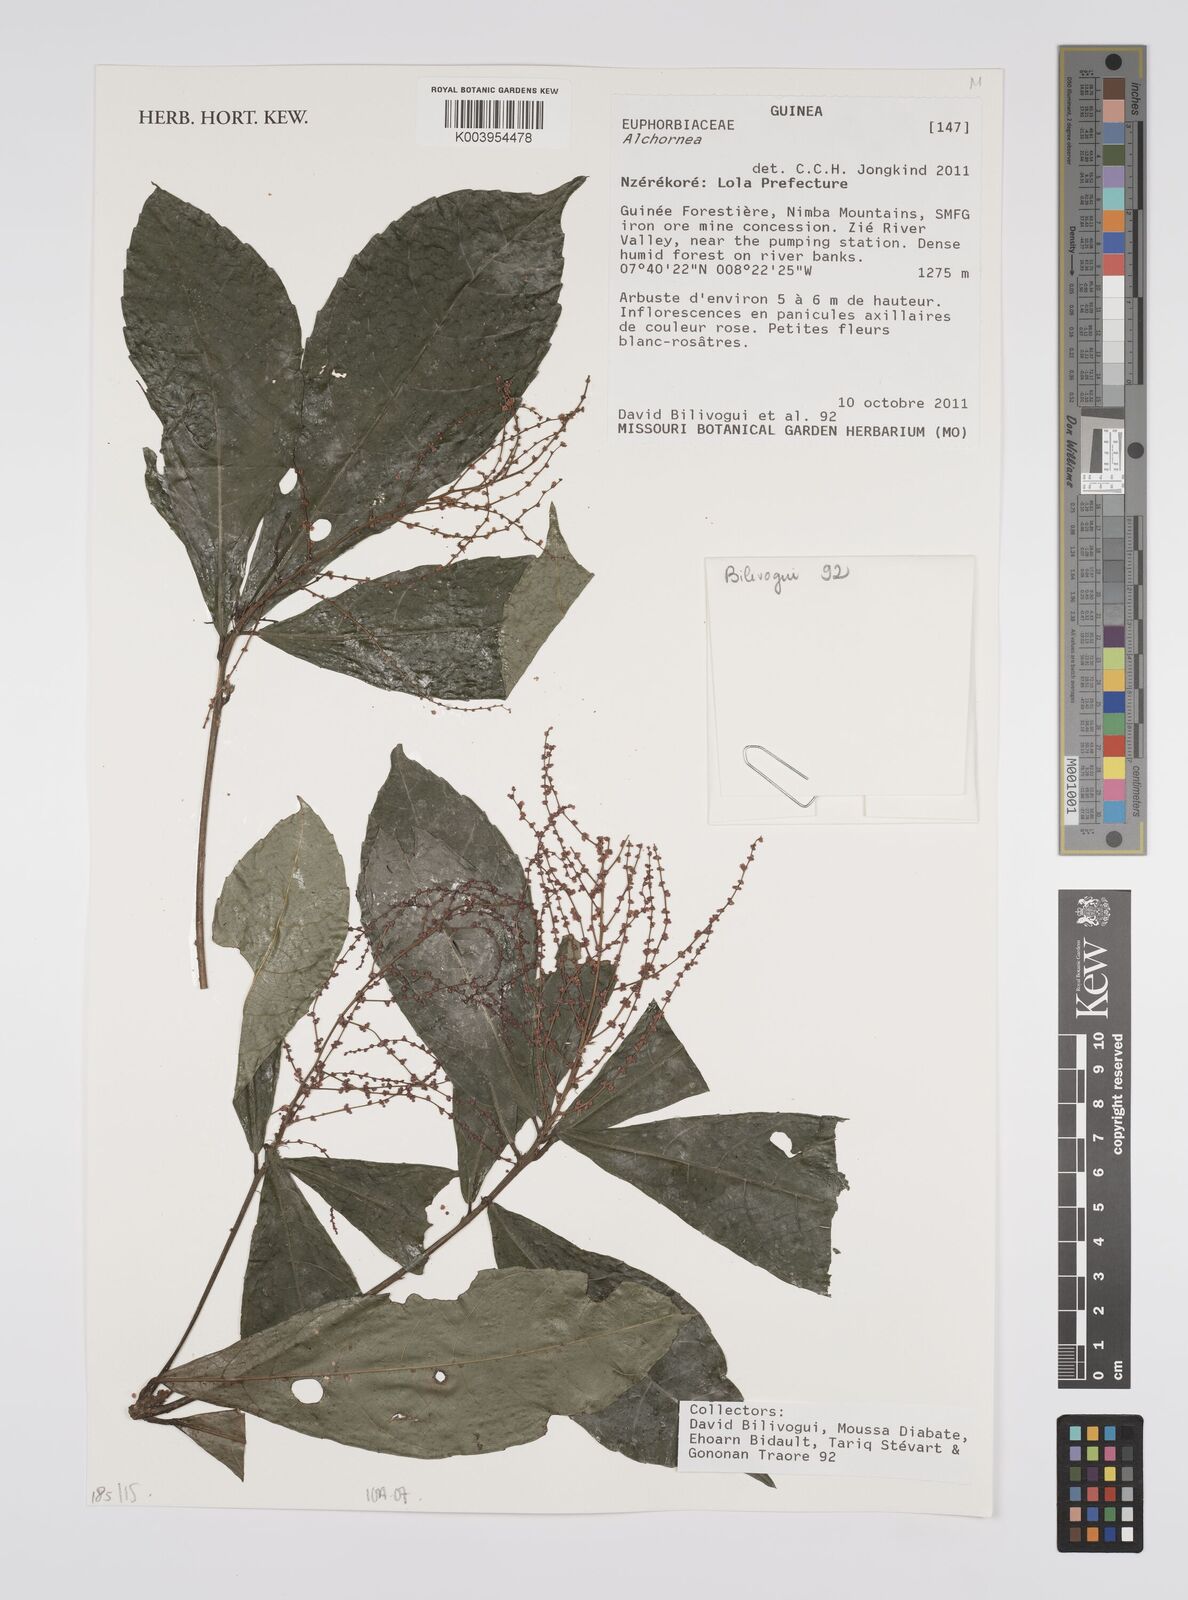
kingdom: Plantae
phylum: Tracheophyta
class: Magnoliopsida
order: Malpighiales
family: Euphorbiaceae
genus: Alchornea
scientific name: Alchornea
